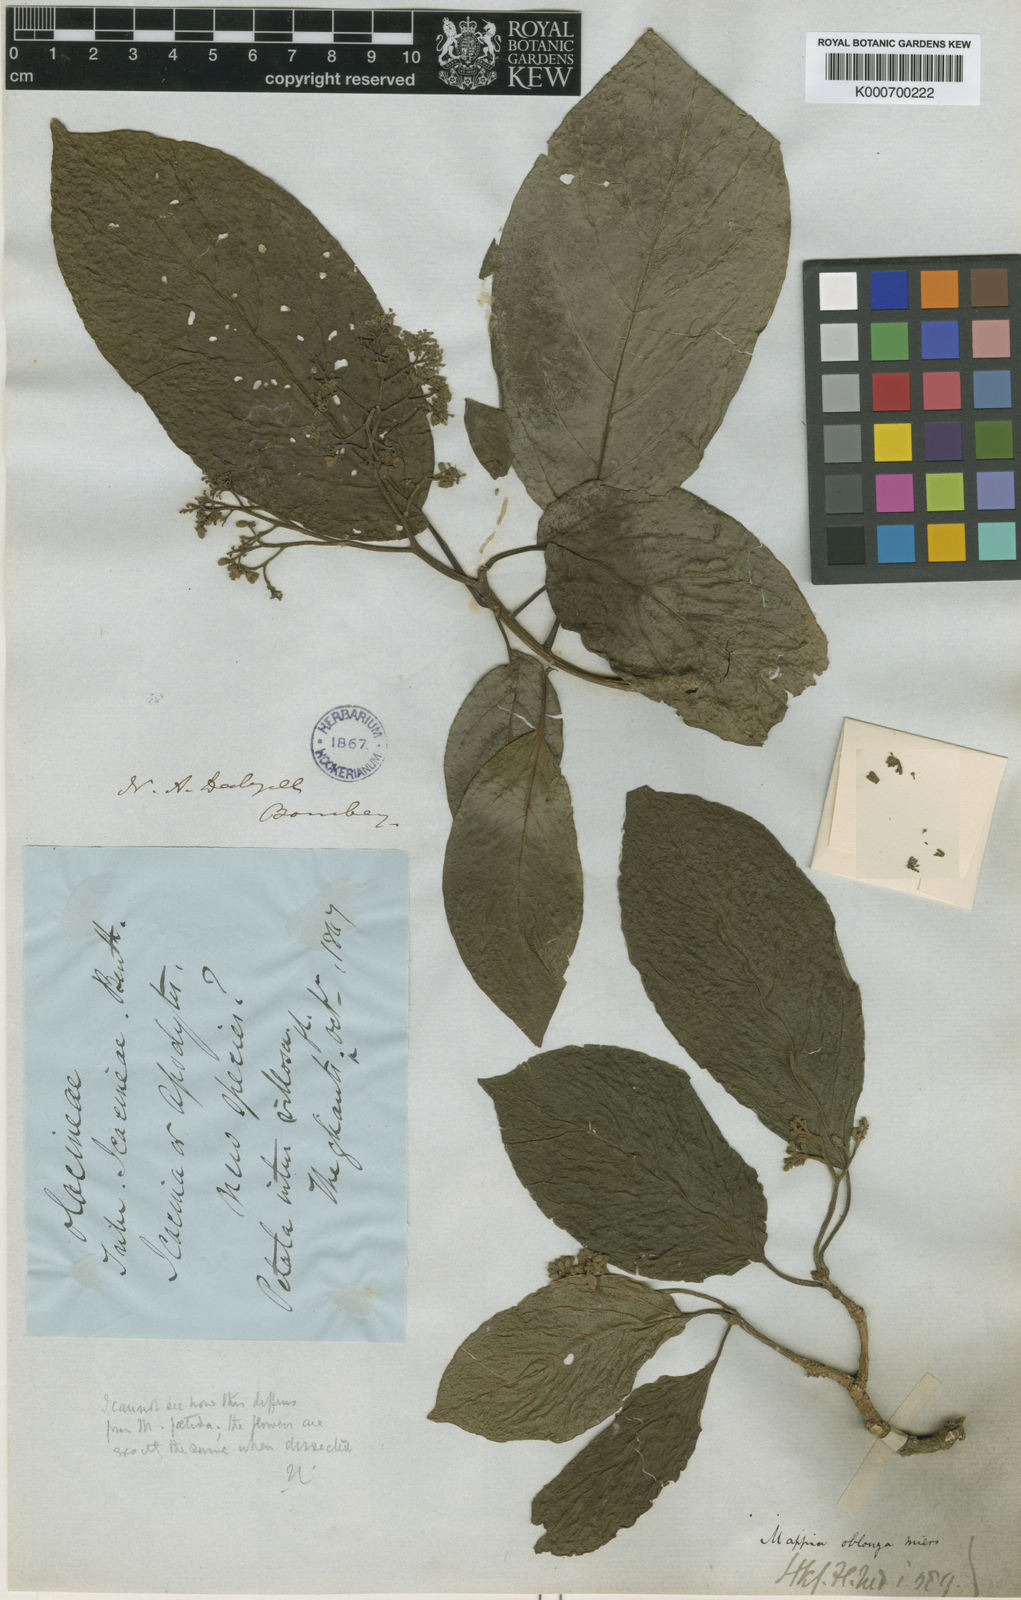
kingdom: Plantae
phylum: Tracheophyta
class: Magnoliopsida
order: Icacinales
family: Icacinaceae
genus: Nothapodytes
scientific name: Nothapodytes nimmoniana
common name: Nothapodytes
